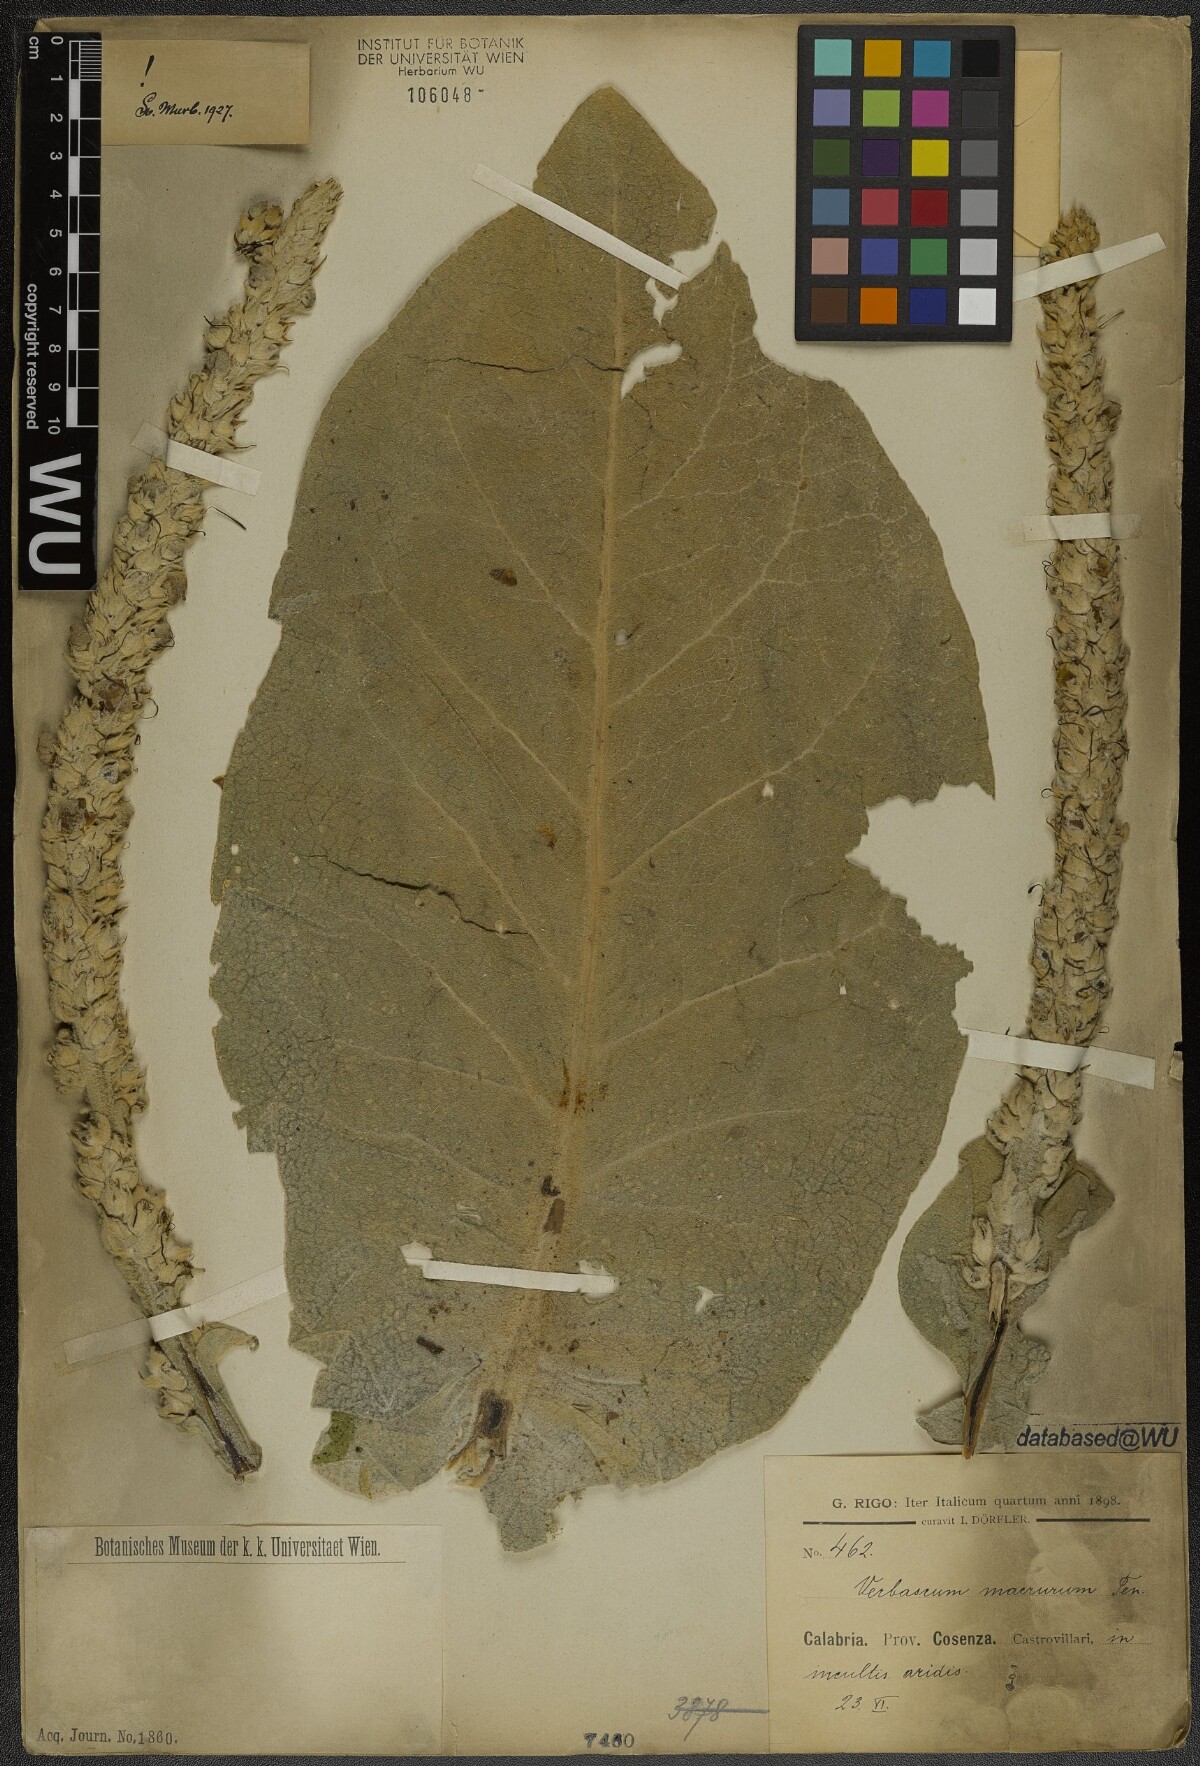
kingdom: Plantae
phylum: Tracheophyta
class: Magnoliopsida
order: Lamiales
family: Scrophulariaceae
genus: Verbascum
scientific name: Verbascum macrurum
